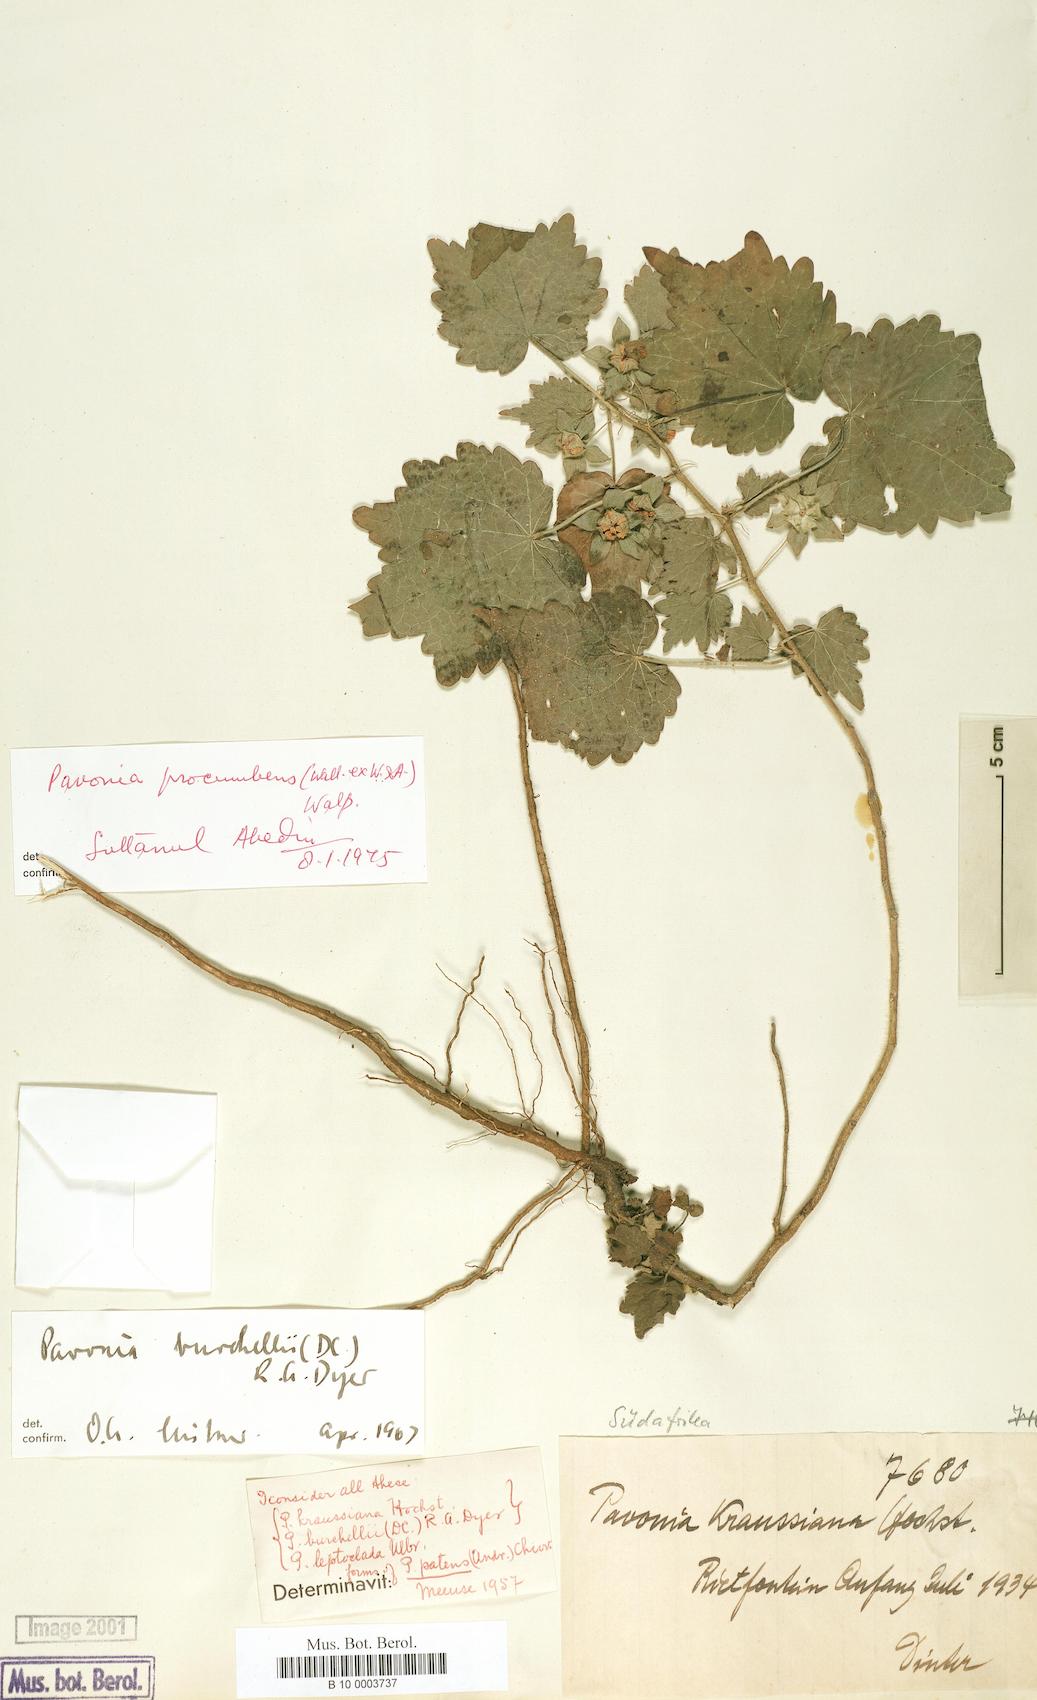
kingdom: Plantae
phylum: Tracheophyta
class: Magnoliopsida
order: Malvales
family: Malvaceae
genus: Pavonia
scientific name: Pavonia procumbens
